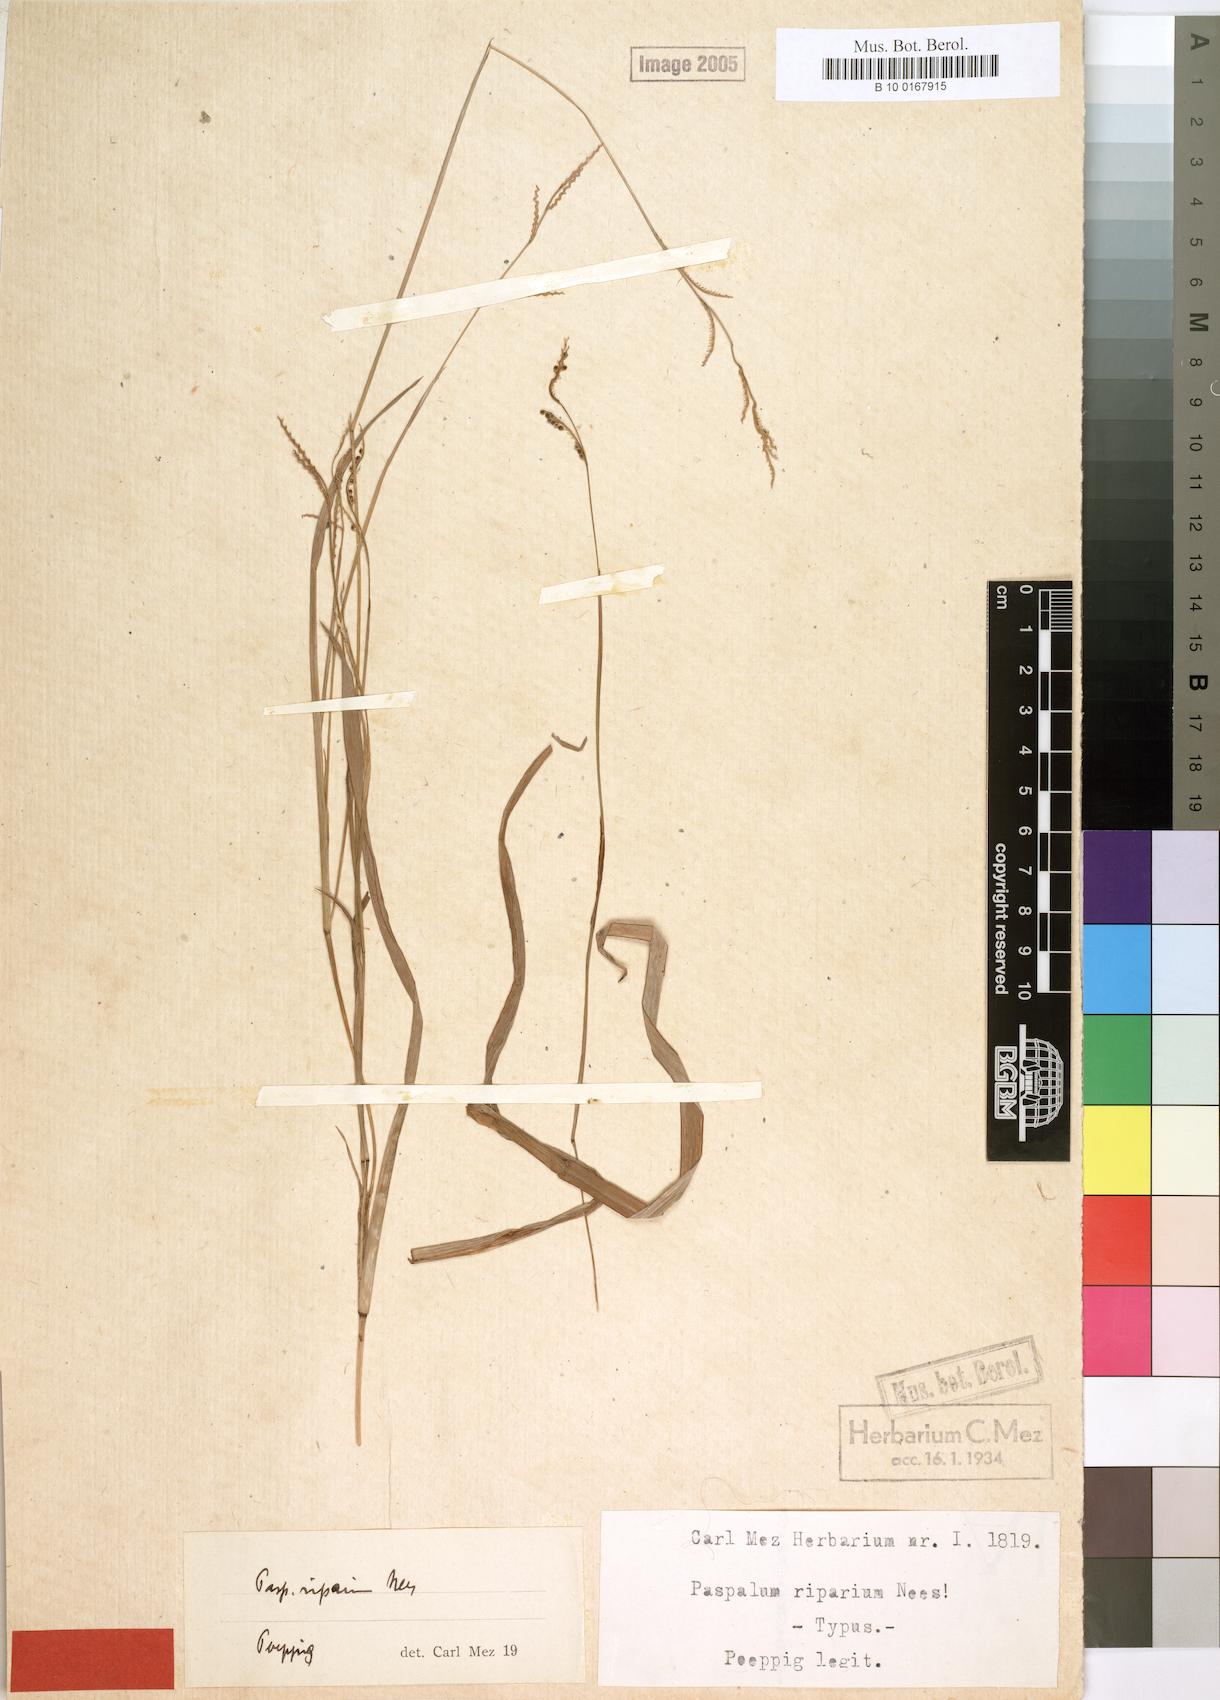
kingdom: Plantae
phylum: Tracheophyta
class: Liliopsida
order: Poales
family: Poaceae
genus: Paspalum
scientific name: Paspalum riparium
